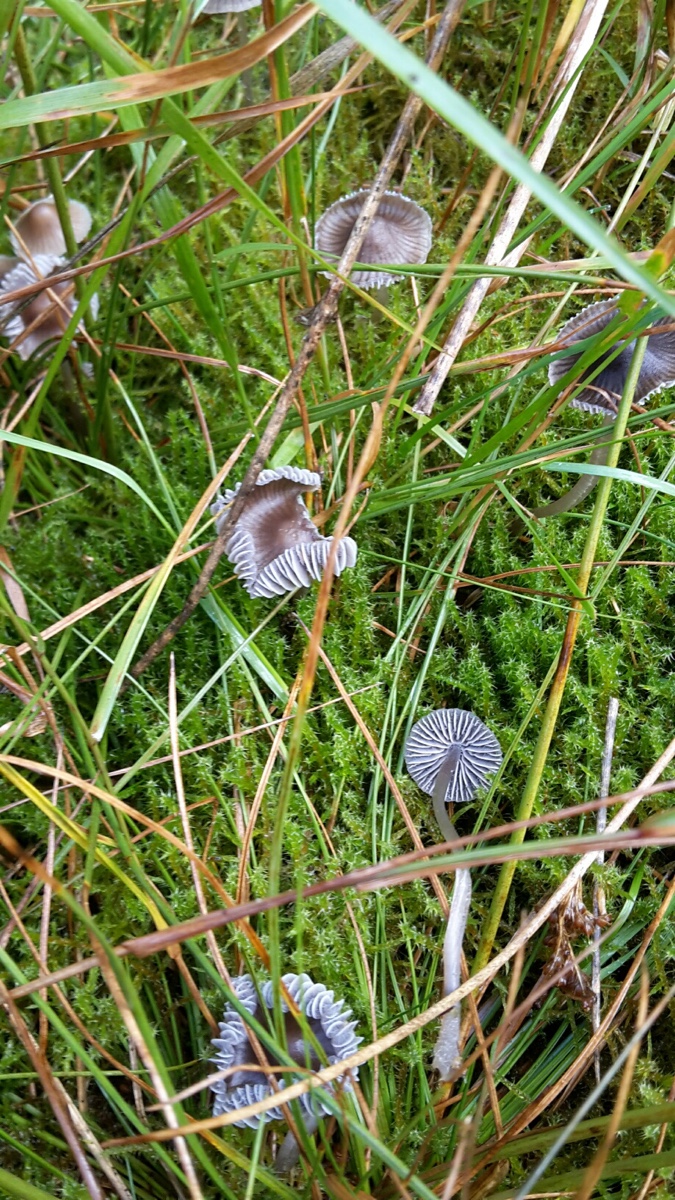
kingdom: Fungi
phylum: Basidiomycota
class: Agaricomycetes
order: Agaricales
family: Mycenaceae
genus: Mycena
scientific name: Mycena
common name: huesvamp
